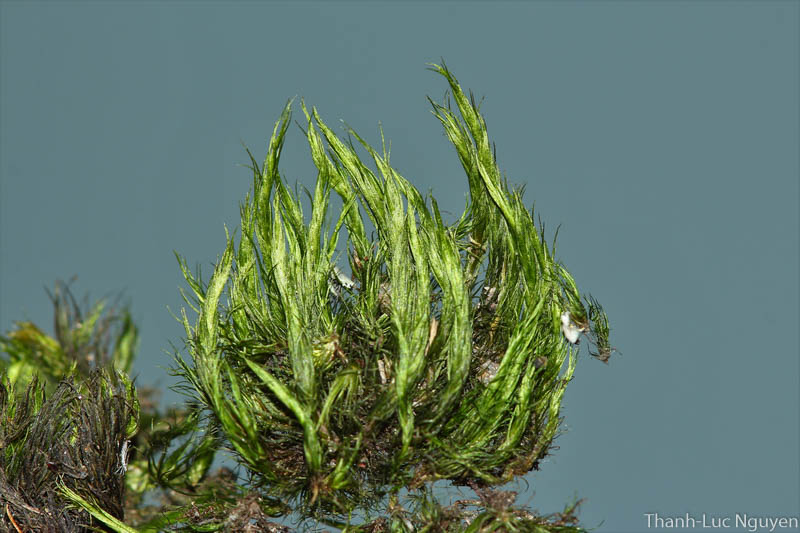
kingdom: Plantae
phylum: Bryophyta
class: Bryopsida
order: Dicranales
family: Leucobryaceae
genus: Campylopus
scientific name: Campylopus
